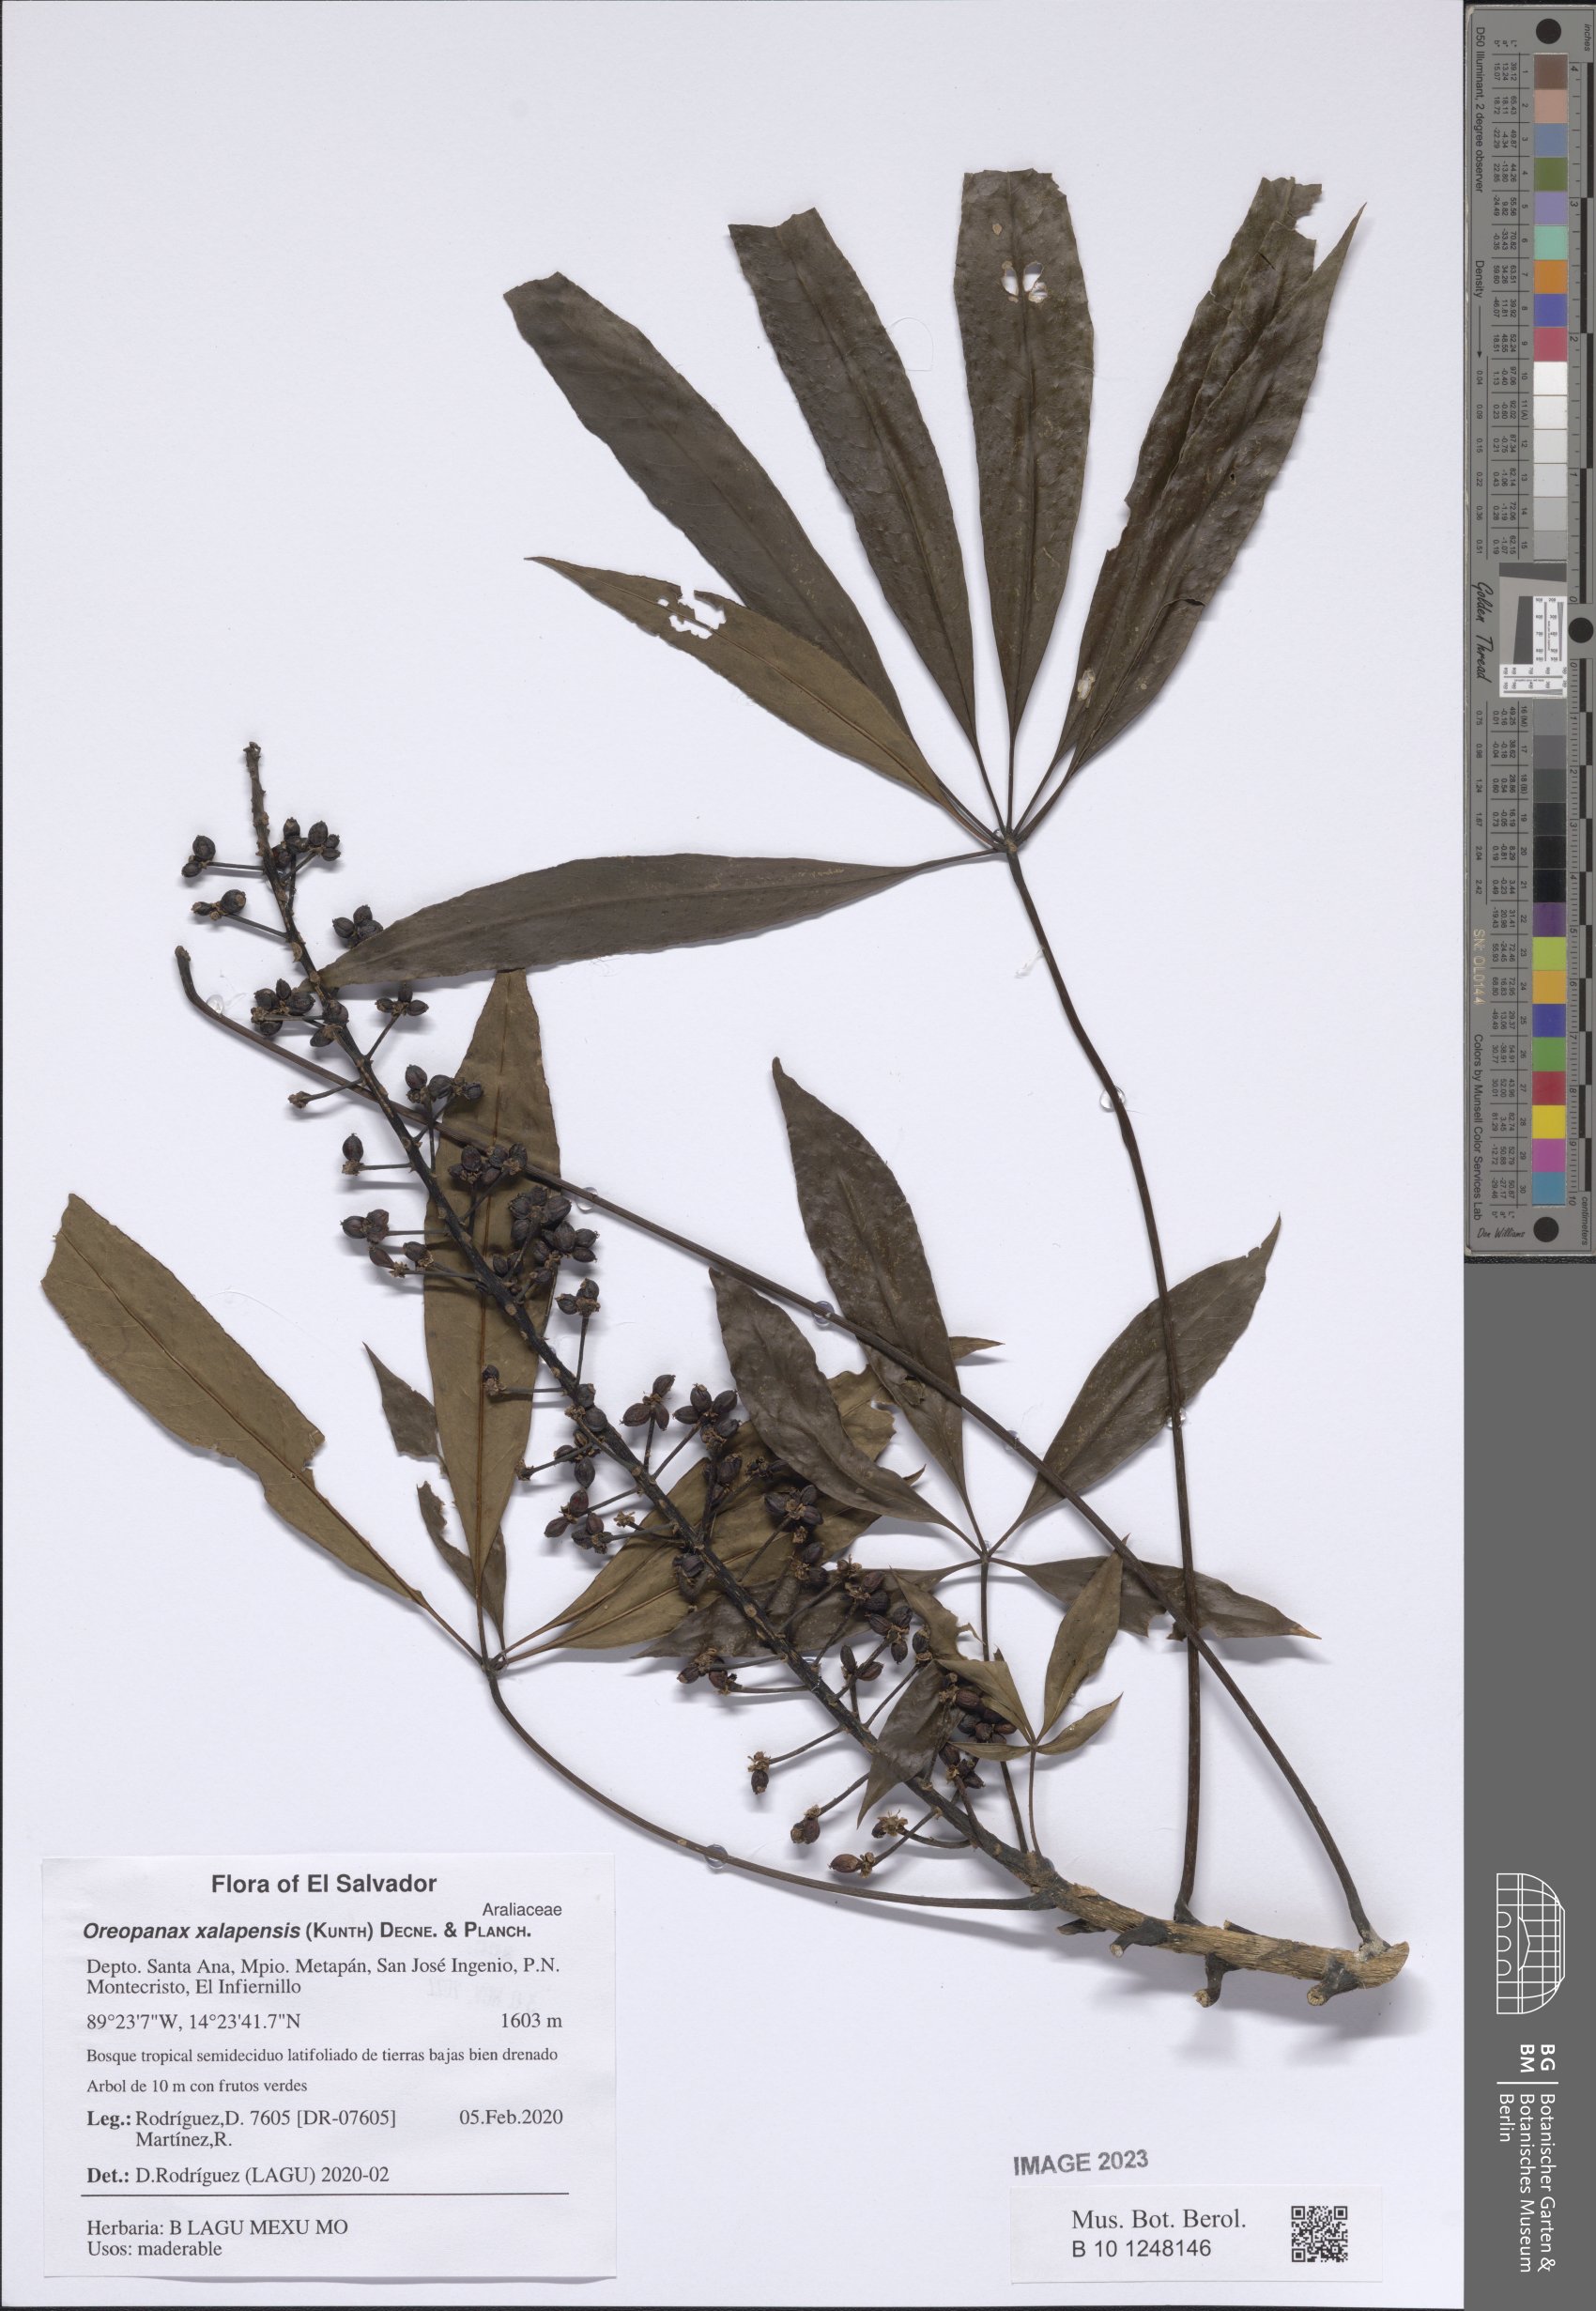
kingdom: Plantae
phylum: Tracheophyta
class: Magnoliopsida
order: Apiales
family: Araliaceae
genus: Oreopanax
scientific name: Oreopanax xalapensis
